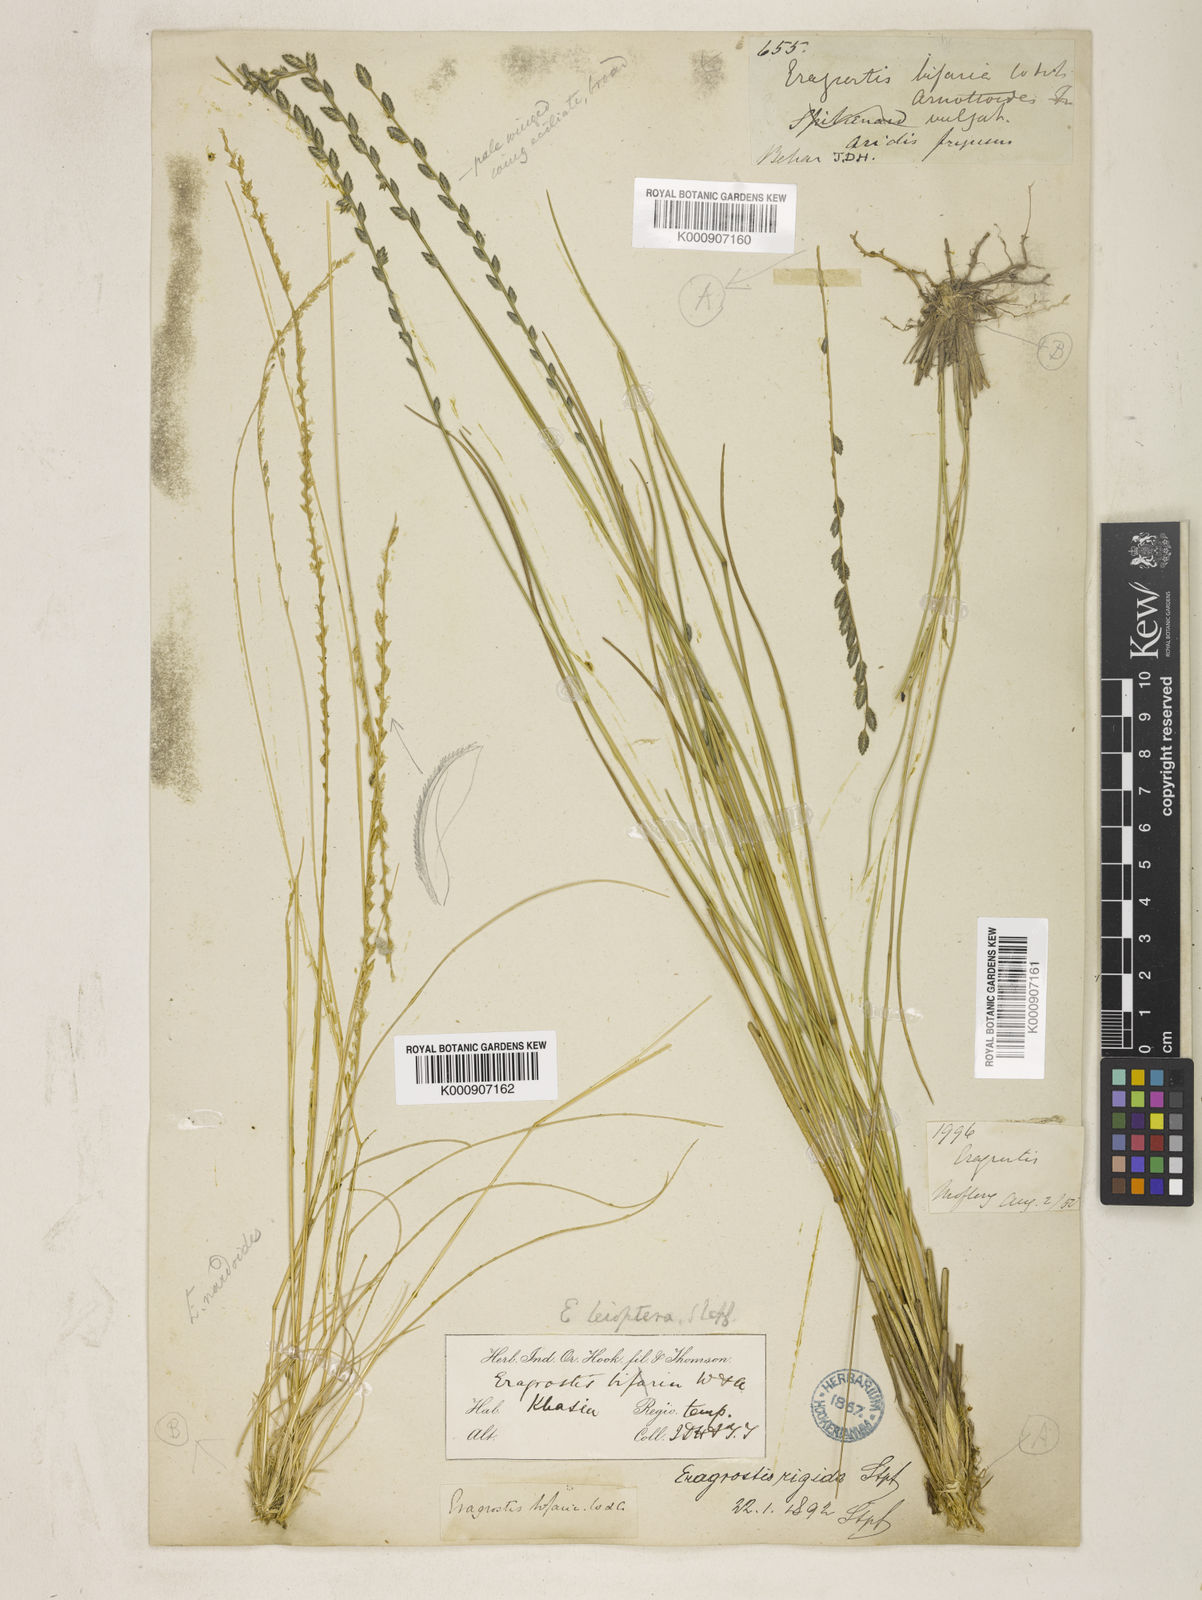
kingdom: Plantae
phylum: Tracheophyta
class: Liliopsida
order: Poales
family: Poaceae
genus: Eragrostiella
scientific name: Eragrostiella leioptera
